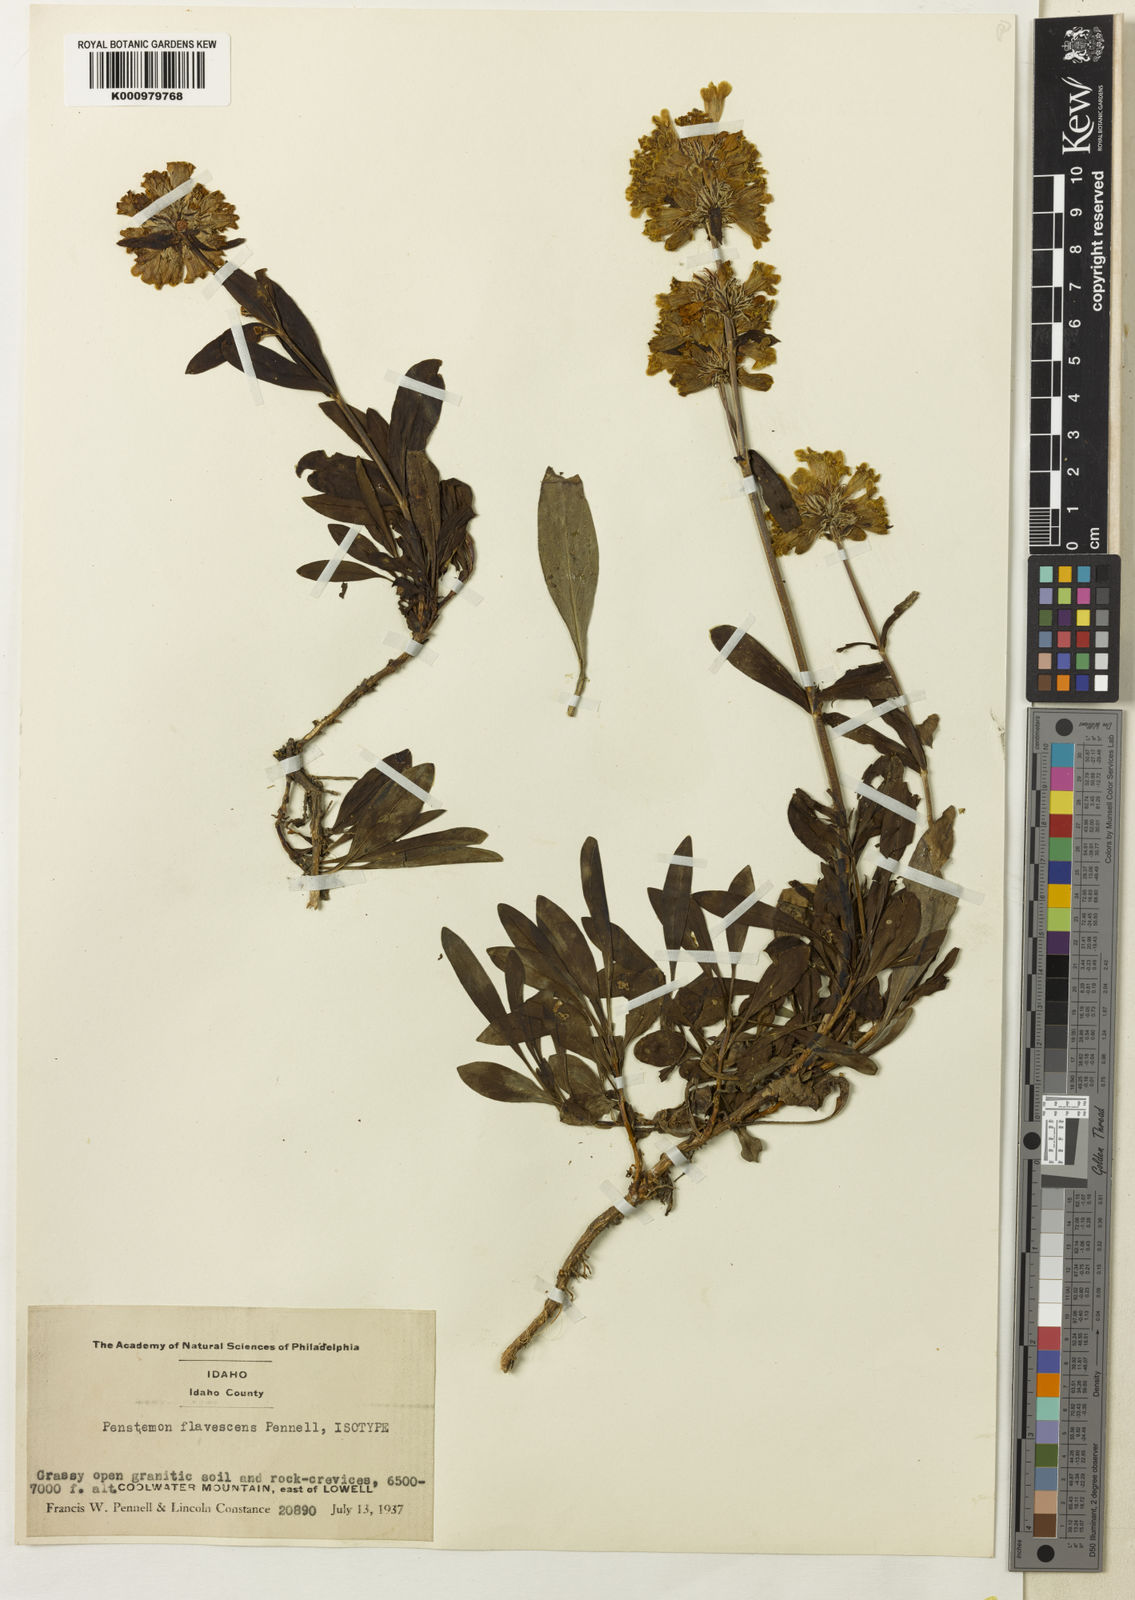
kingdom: Plantae
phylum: Tracheophyta
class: Magnoliopsida
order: Lamiales
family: Plantaginaceae
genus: Penstemon
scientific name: Penstemon flavescens
